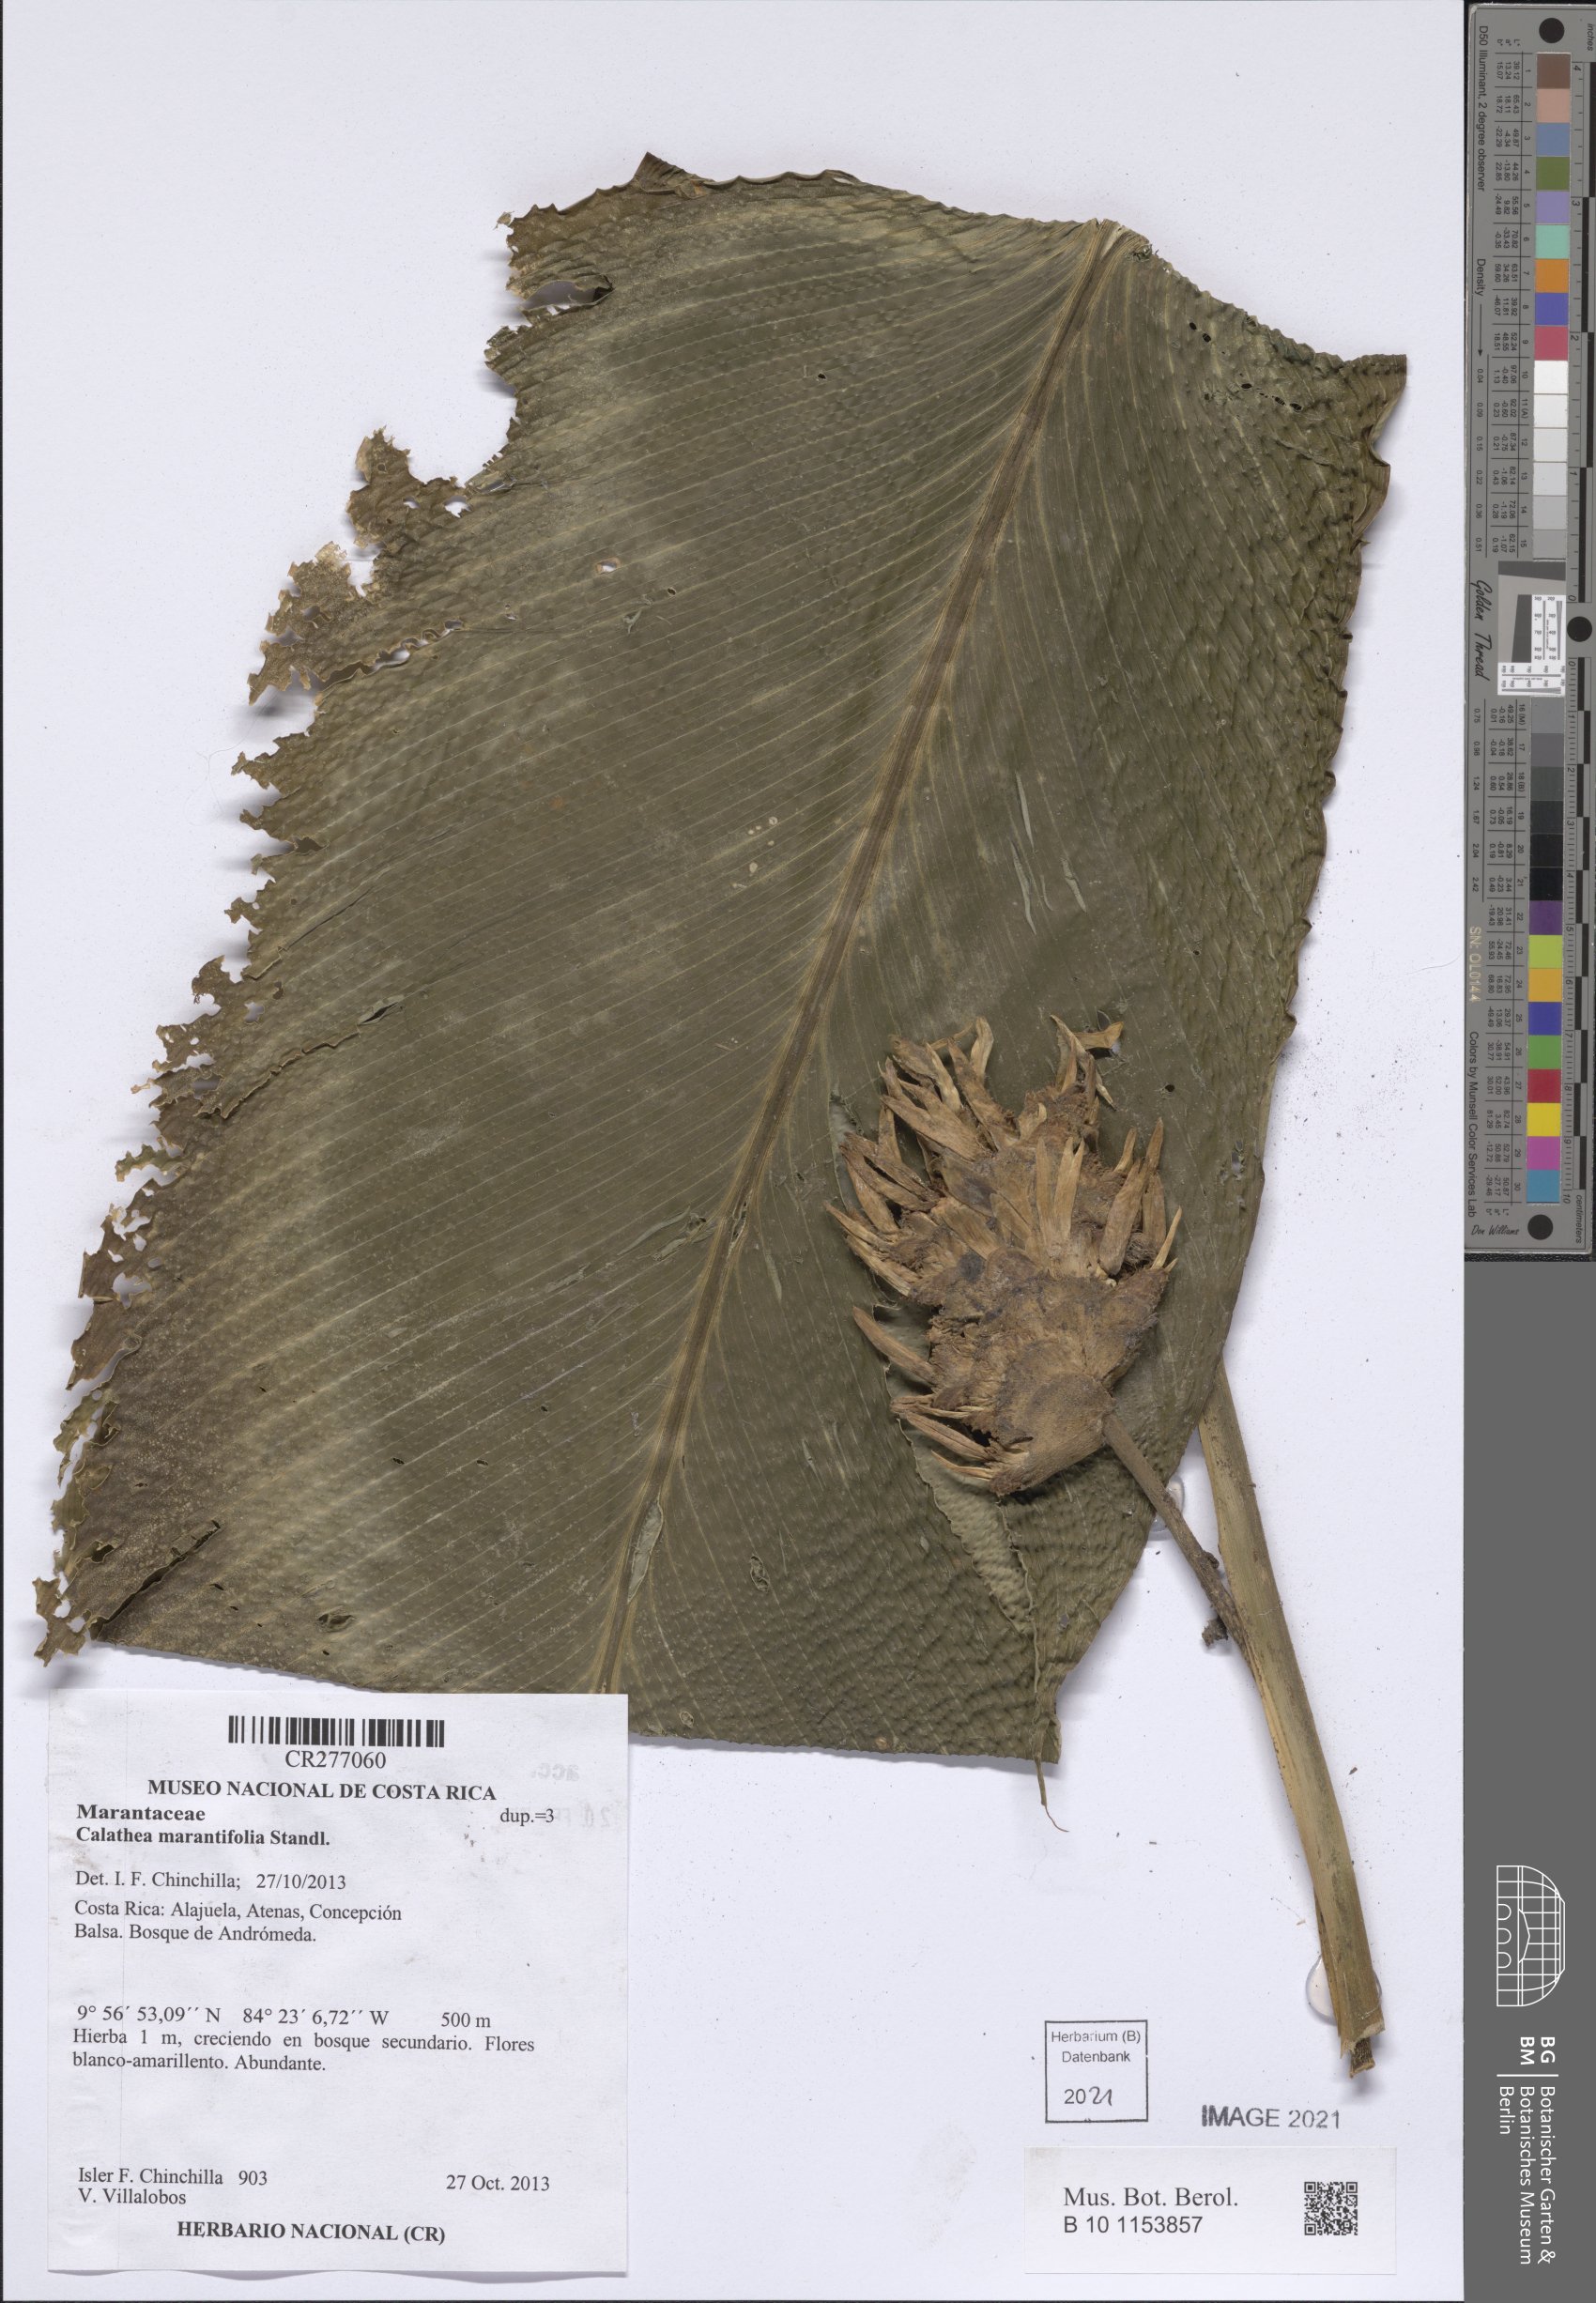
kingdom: Plantae
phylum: Tracheophyta
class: Liliopsida
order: Zingiberales
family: Marantaceae
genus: Goeppertia
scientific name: Goeppertia marantifolia
